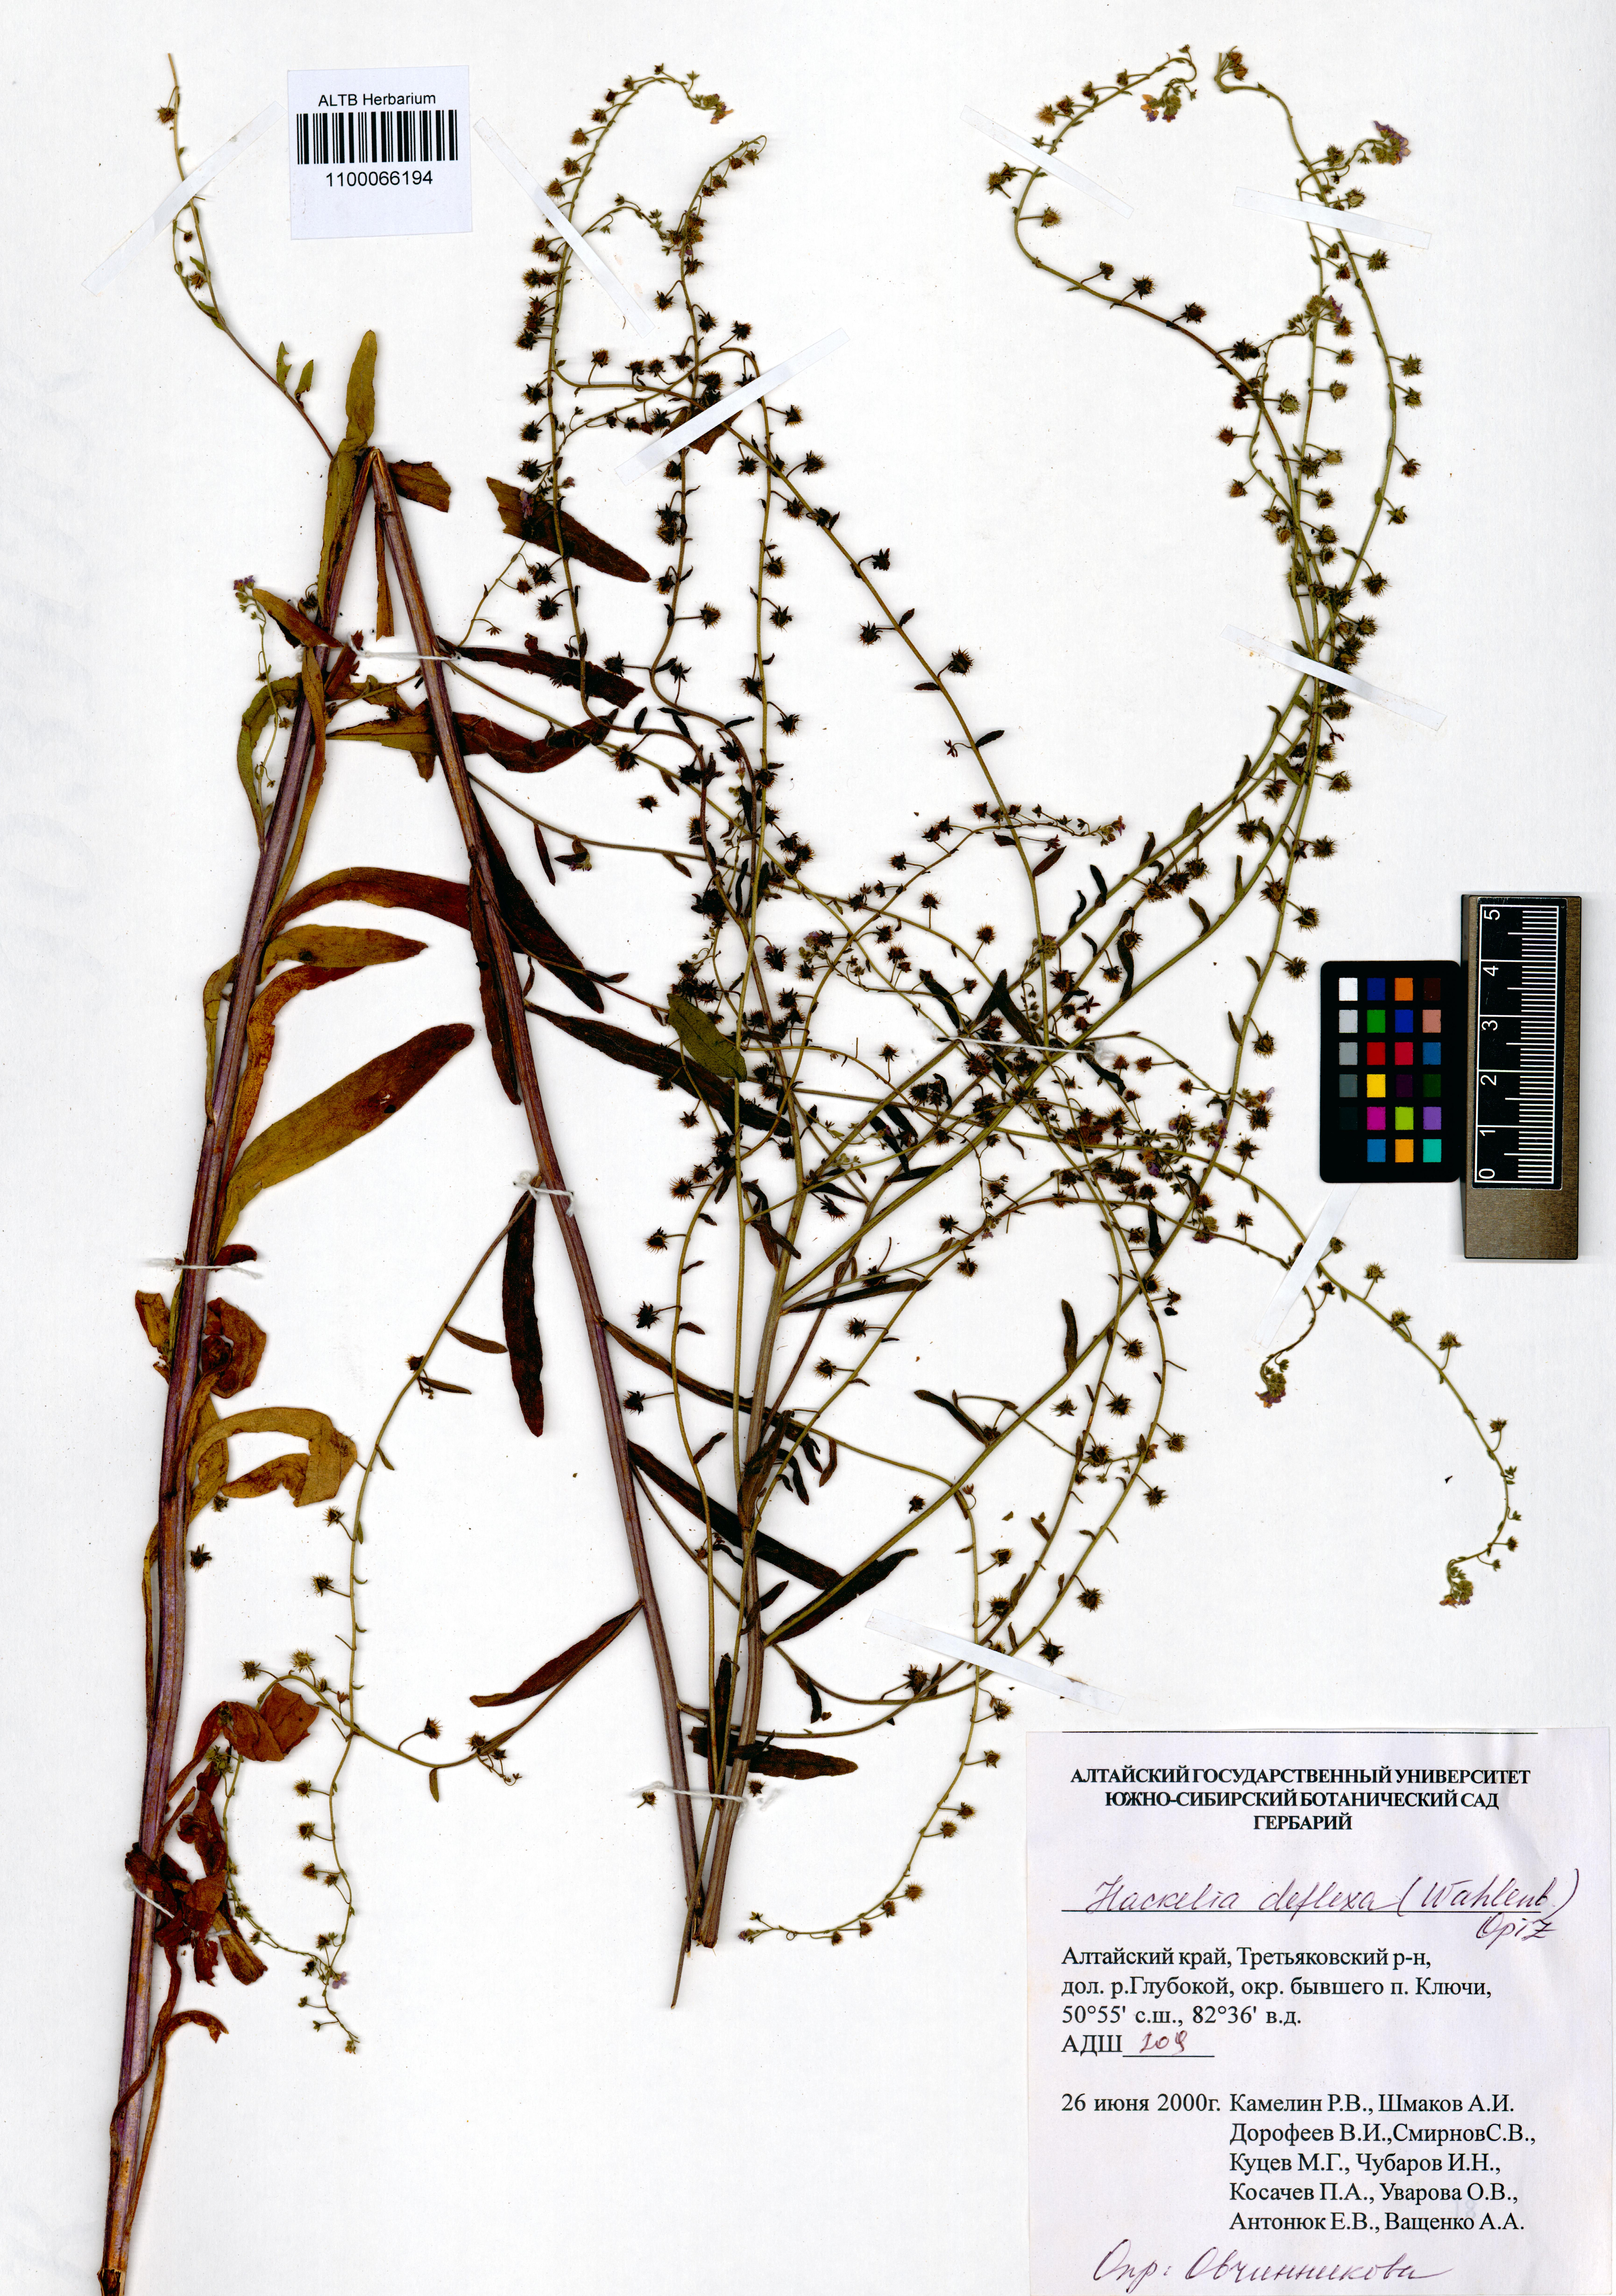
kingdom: Plantae
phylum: Tracheophyta
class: Magnoliopsida
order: Boraginales
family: Boraginaceae
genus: Hackelia
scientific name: Hackelia deflexa
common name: Nodding stickseed
